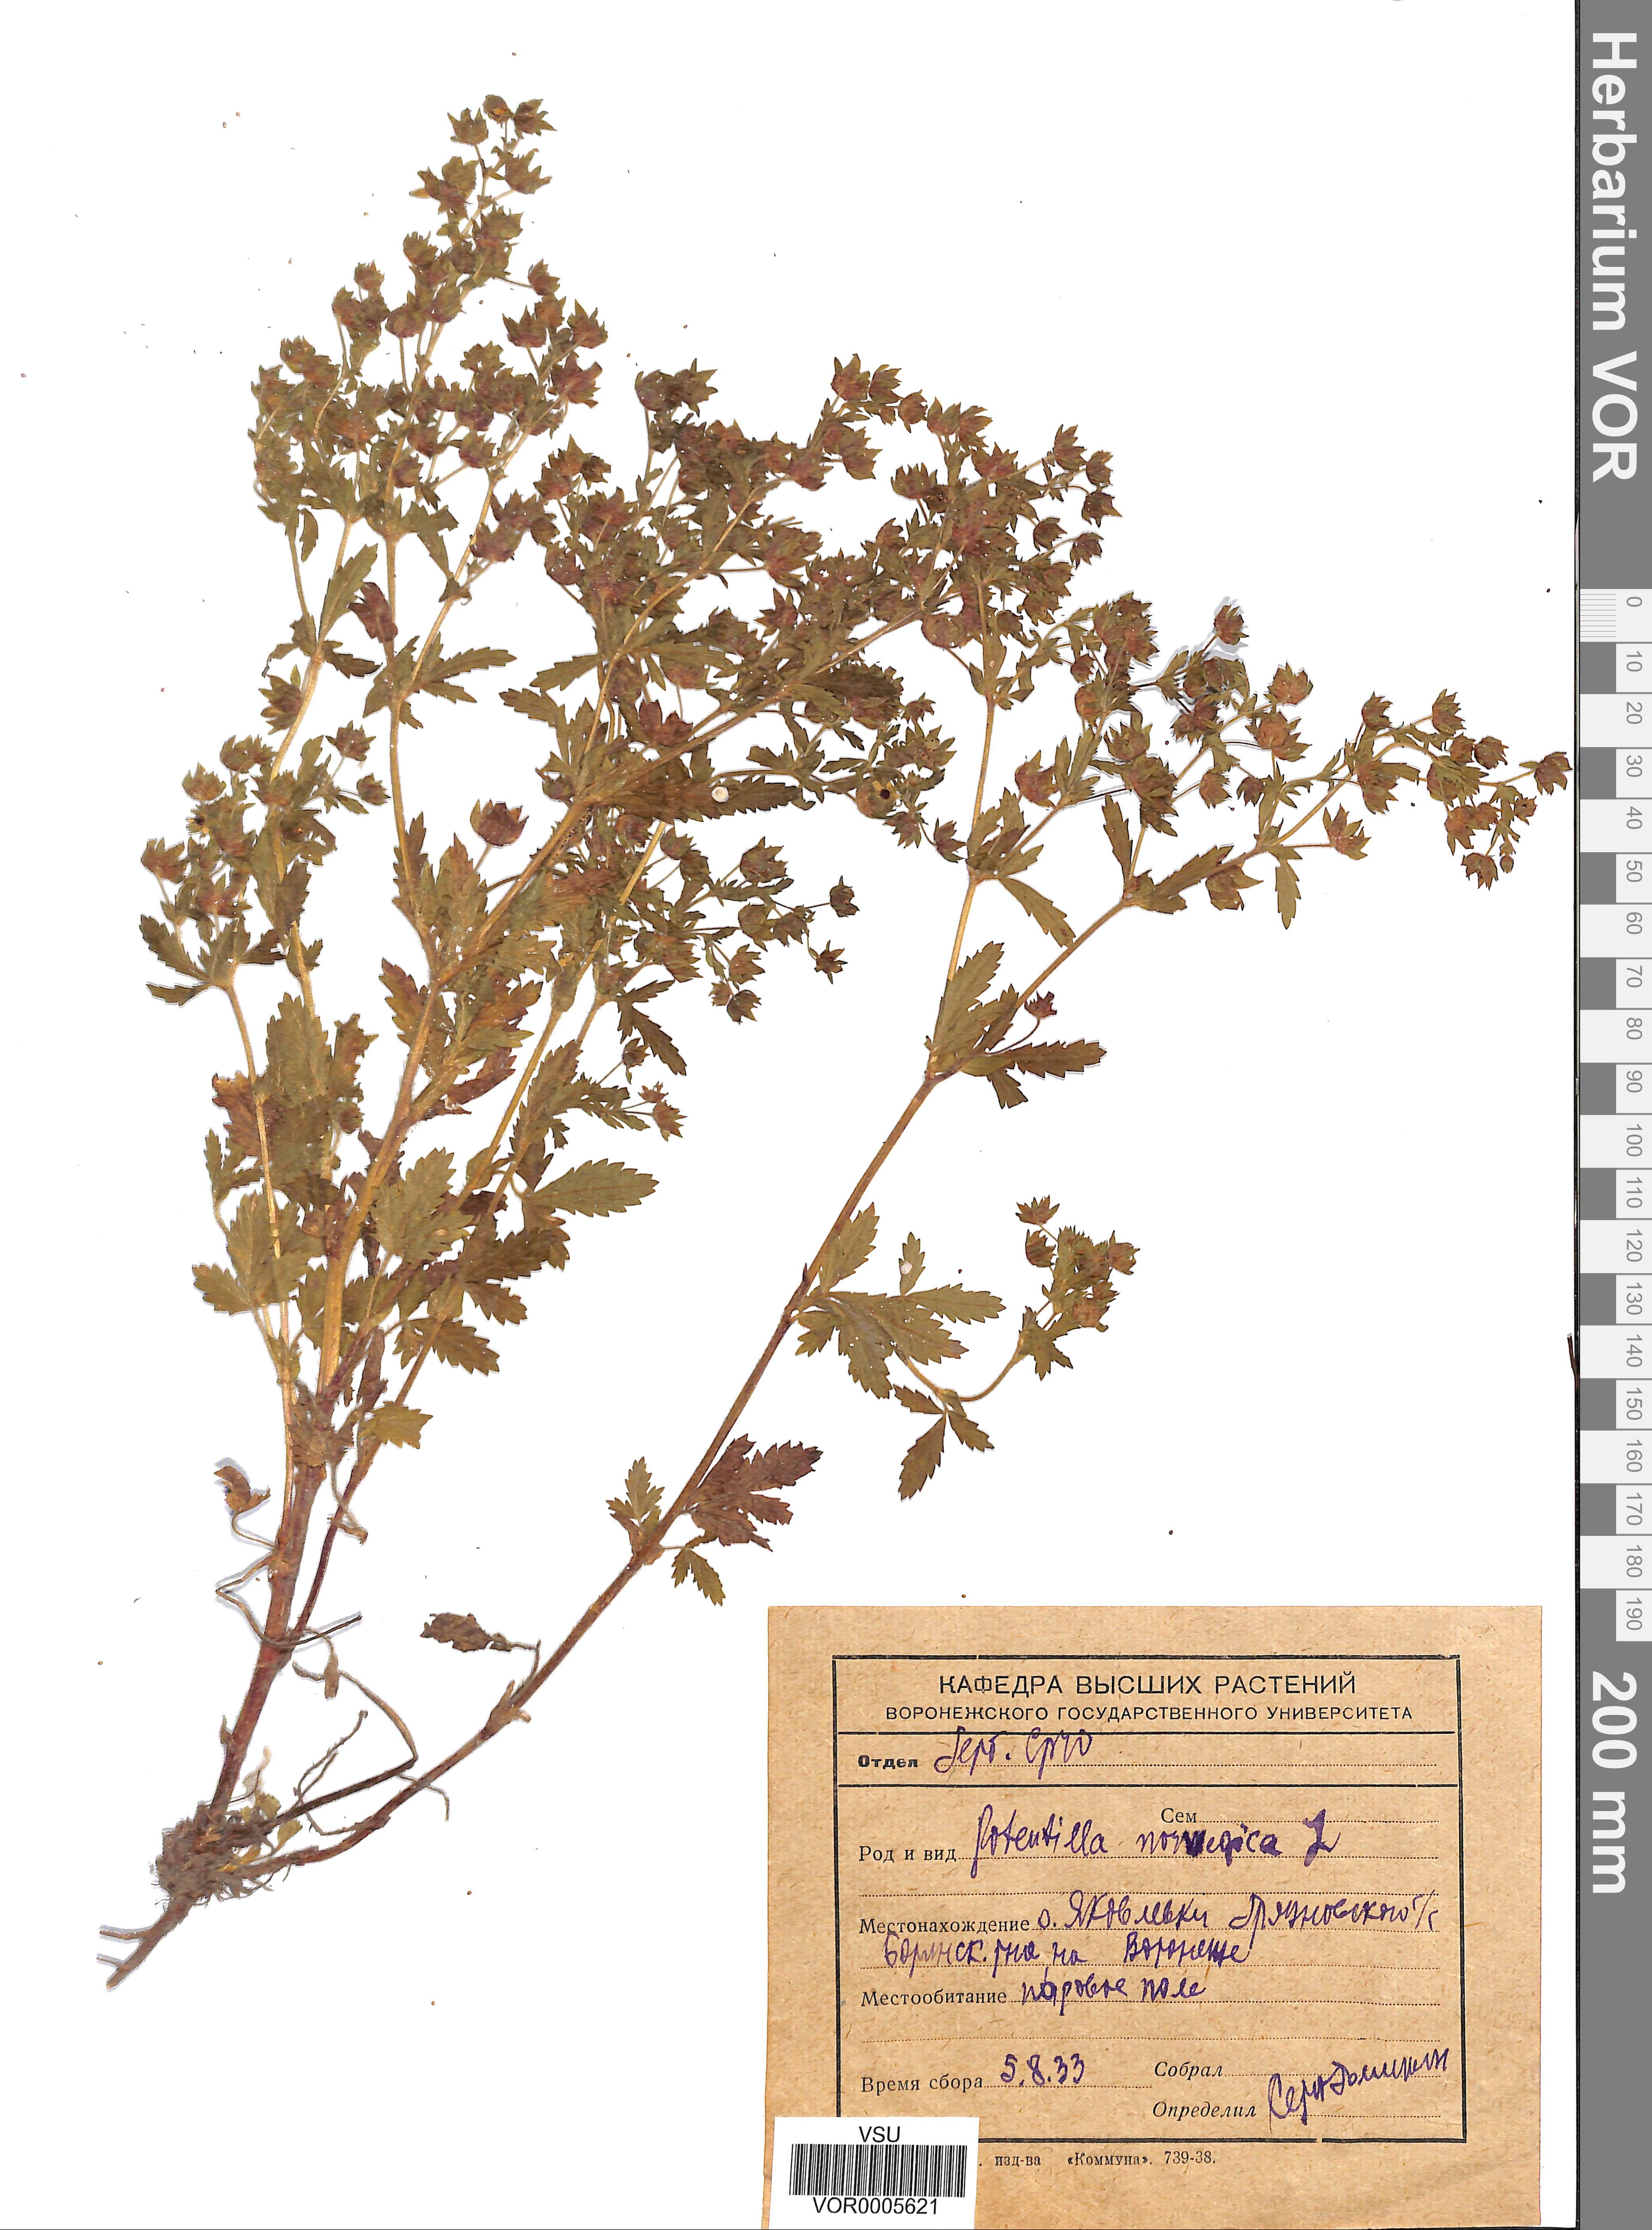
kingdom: Plantae
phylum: Tracheophyta
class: Magnoliopsida
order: Rosales
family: Rosaceae
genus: Potentilla
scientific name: Potentilla erecta
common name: Tormentil
